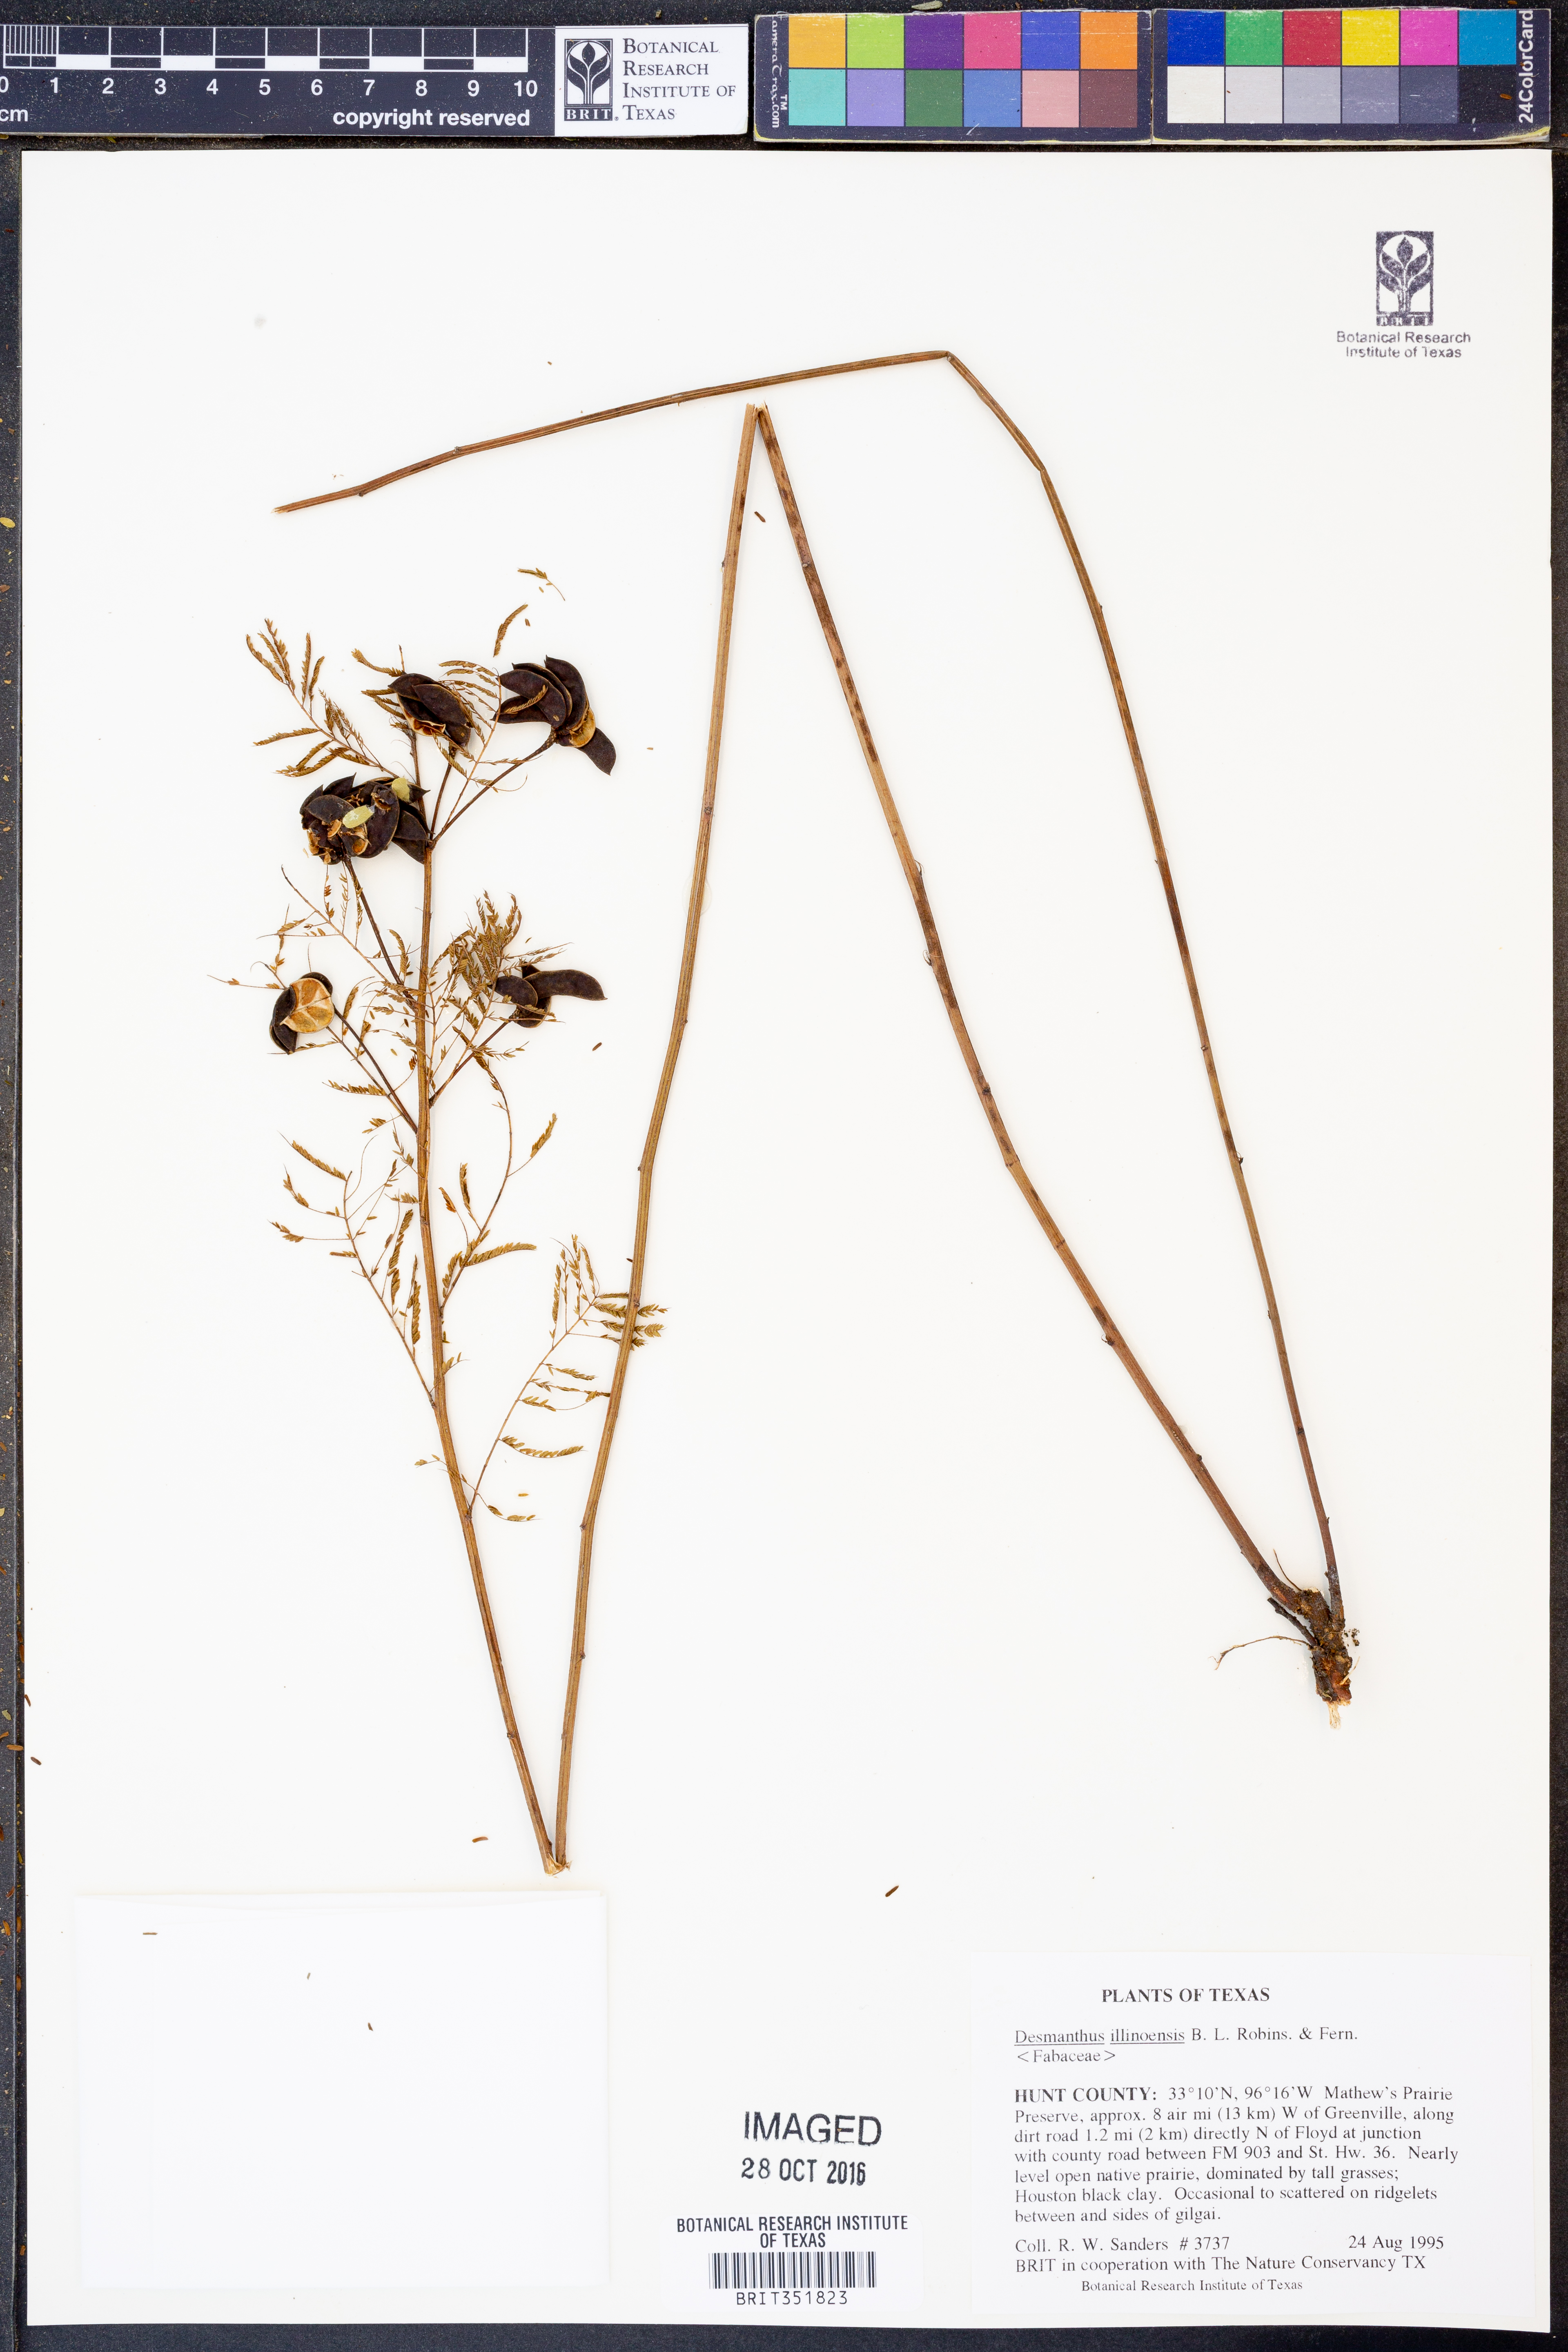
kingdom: Plantae
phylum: Tracheophyta
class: Magnoliopsida
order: Fabales
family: Fabaceae
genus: Desmanthus
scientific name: Desmanthus illinoensis
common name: Illinois bundle-flower
